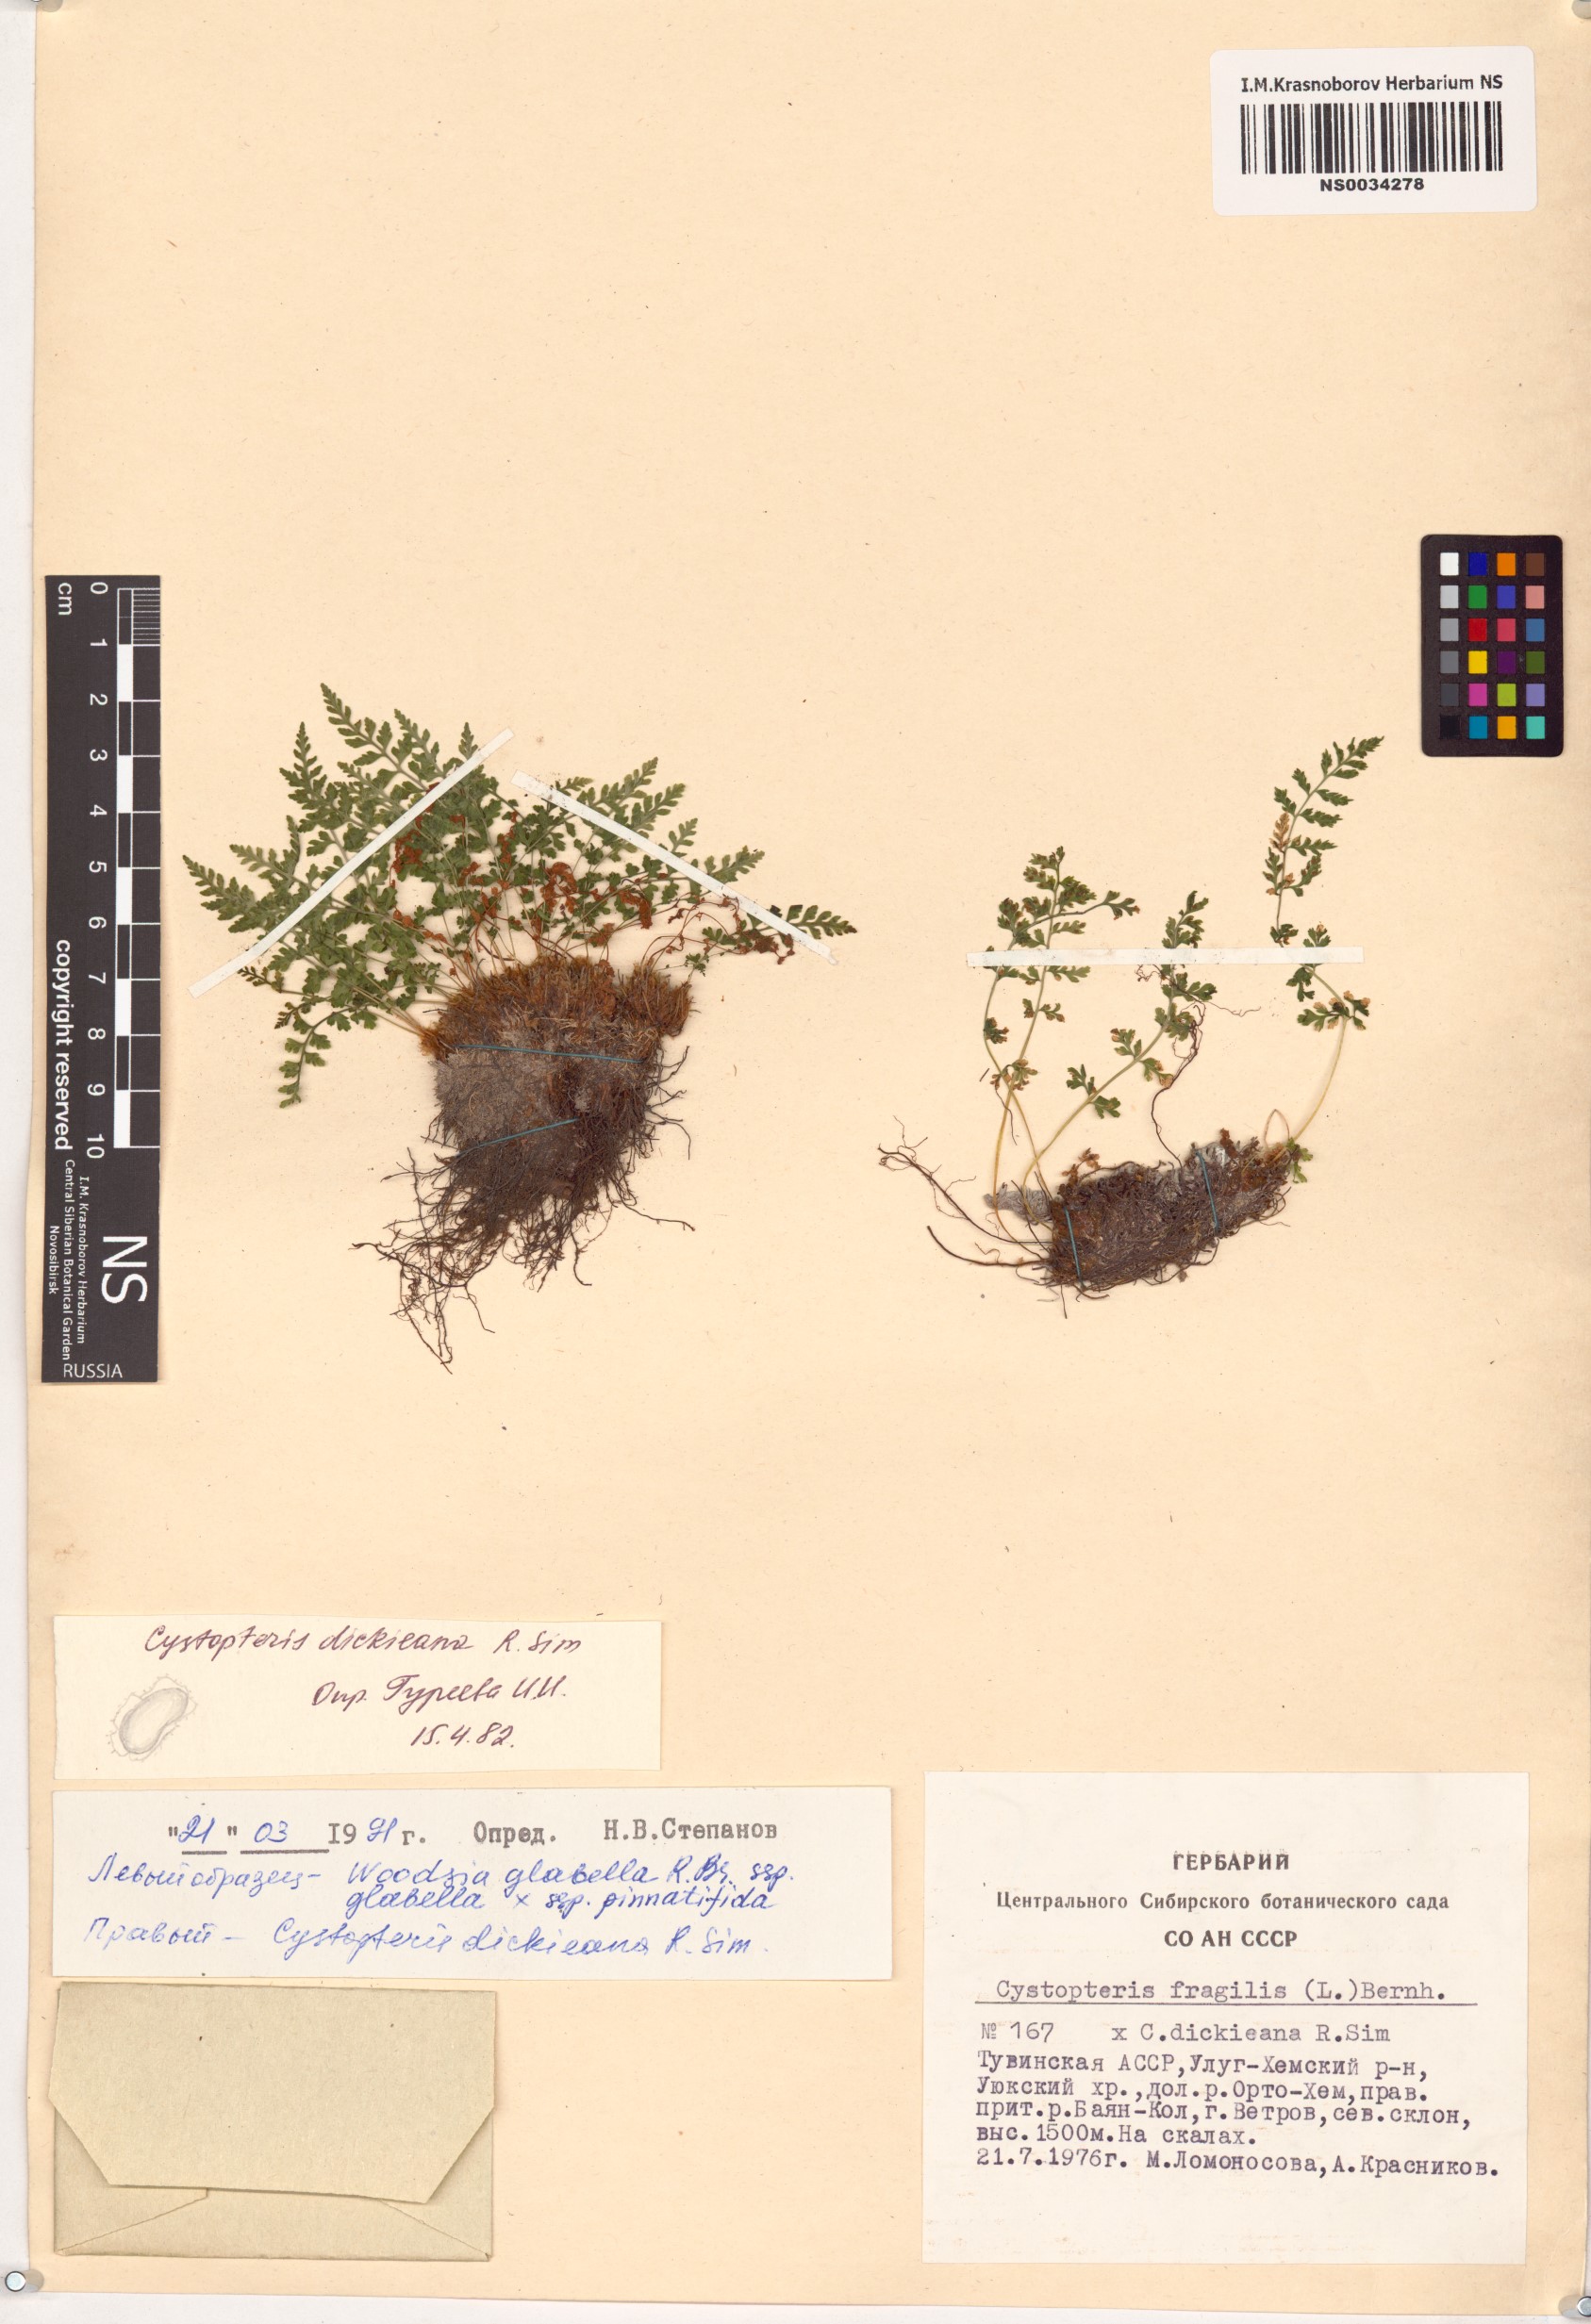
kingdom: Plantae
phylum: Tracheophyta
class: Polypodiopsida
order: Polypodiales
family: Cystopteridaceae
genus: Cystopteris
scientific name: Cystopteris dickieana
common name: Dickie's bladder-fern
